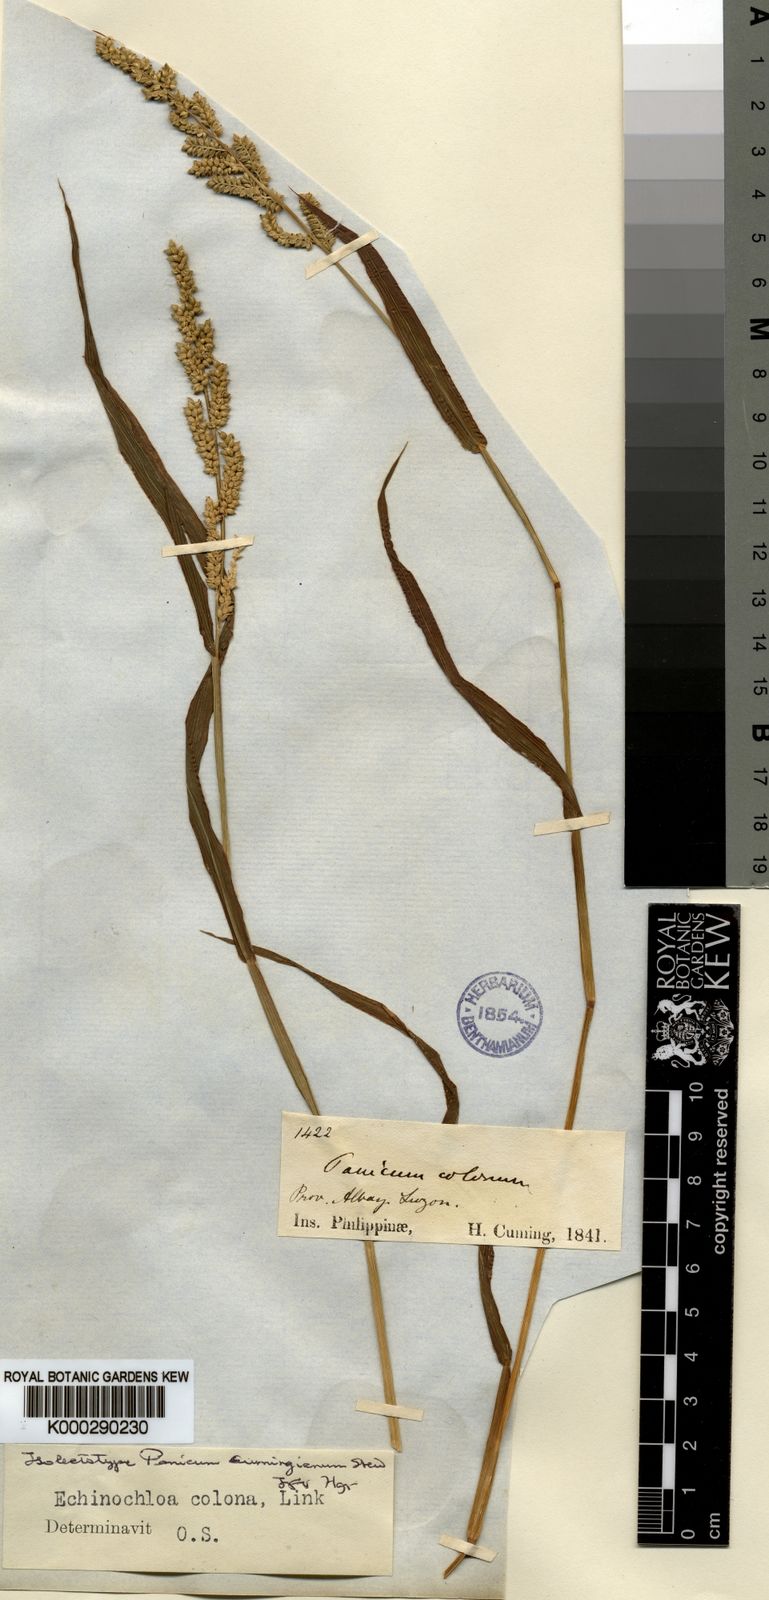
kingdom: Plantae
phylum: Tracheophyta
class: Liliopsida
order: Poales
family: Poaceae
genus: Echinochloa
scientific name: Echinochloa colonum
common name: Jungle rice
